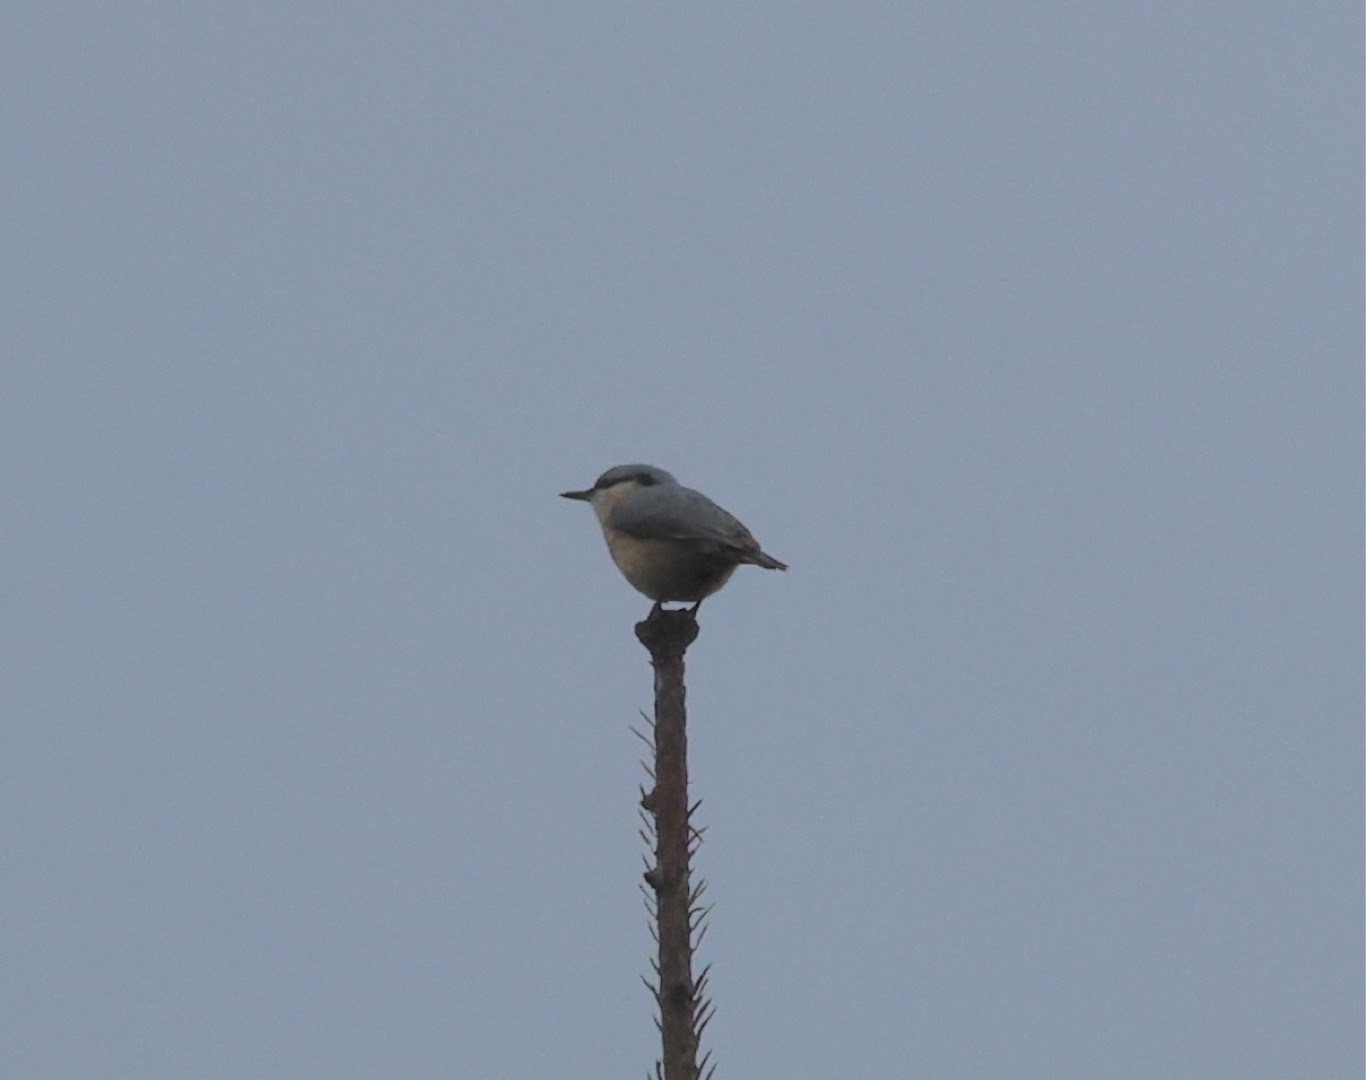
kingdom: Animalia
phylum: Chordata
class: Aves
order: Passeriformes
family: Sittidae
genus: Sitta
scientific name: Sitta europaea
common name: Spætmejse
